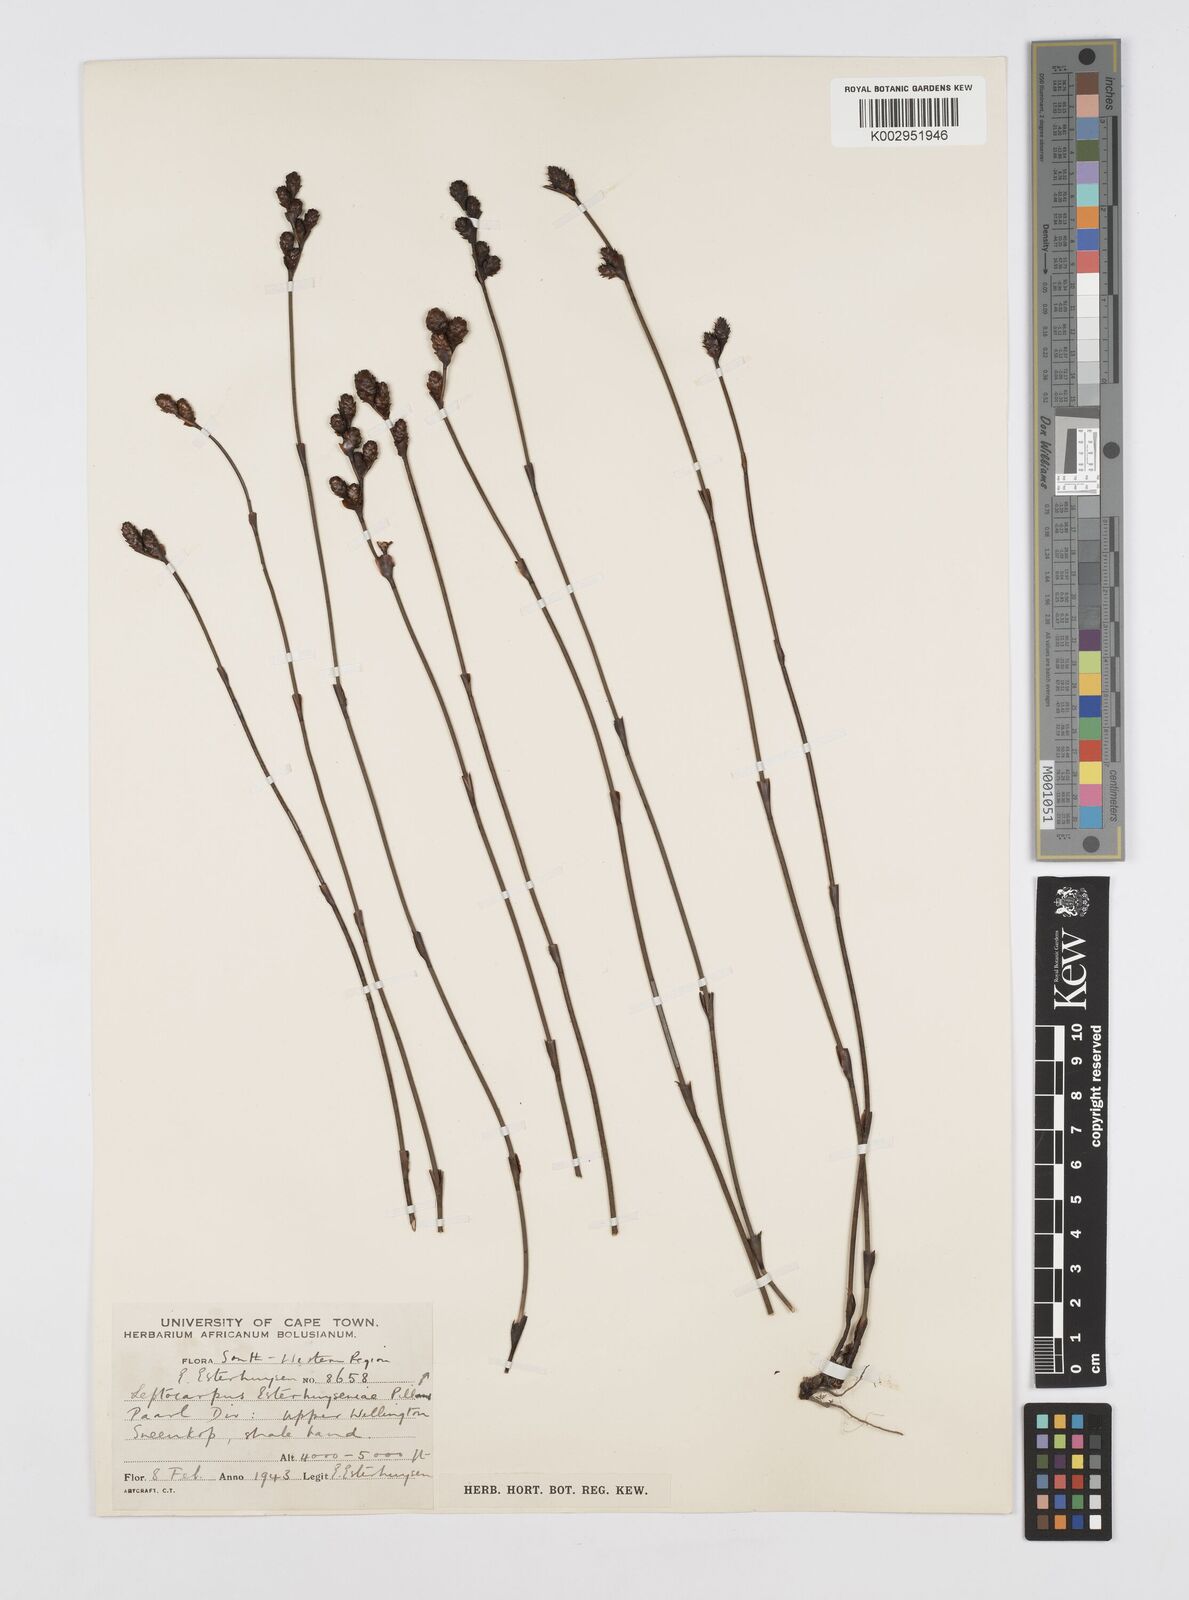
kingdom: Plantae
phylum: Tracheophyta
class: Liliopsida
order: Poales
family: Restionaceae
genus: Restio
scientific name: Restio esterhuyseniae
